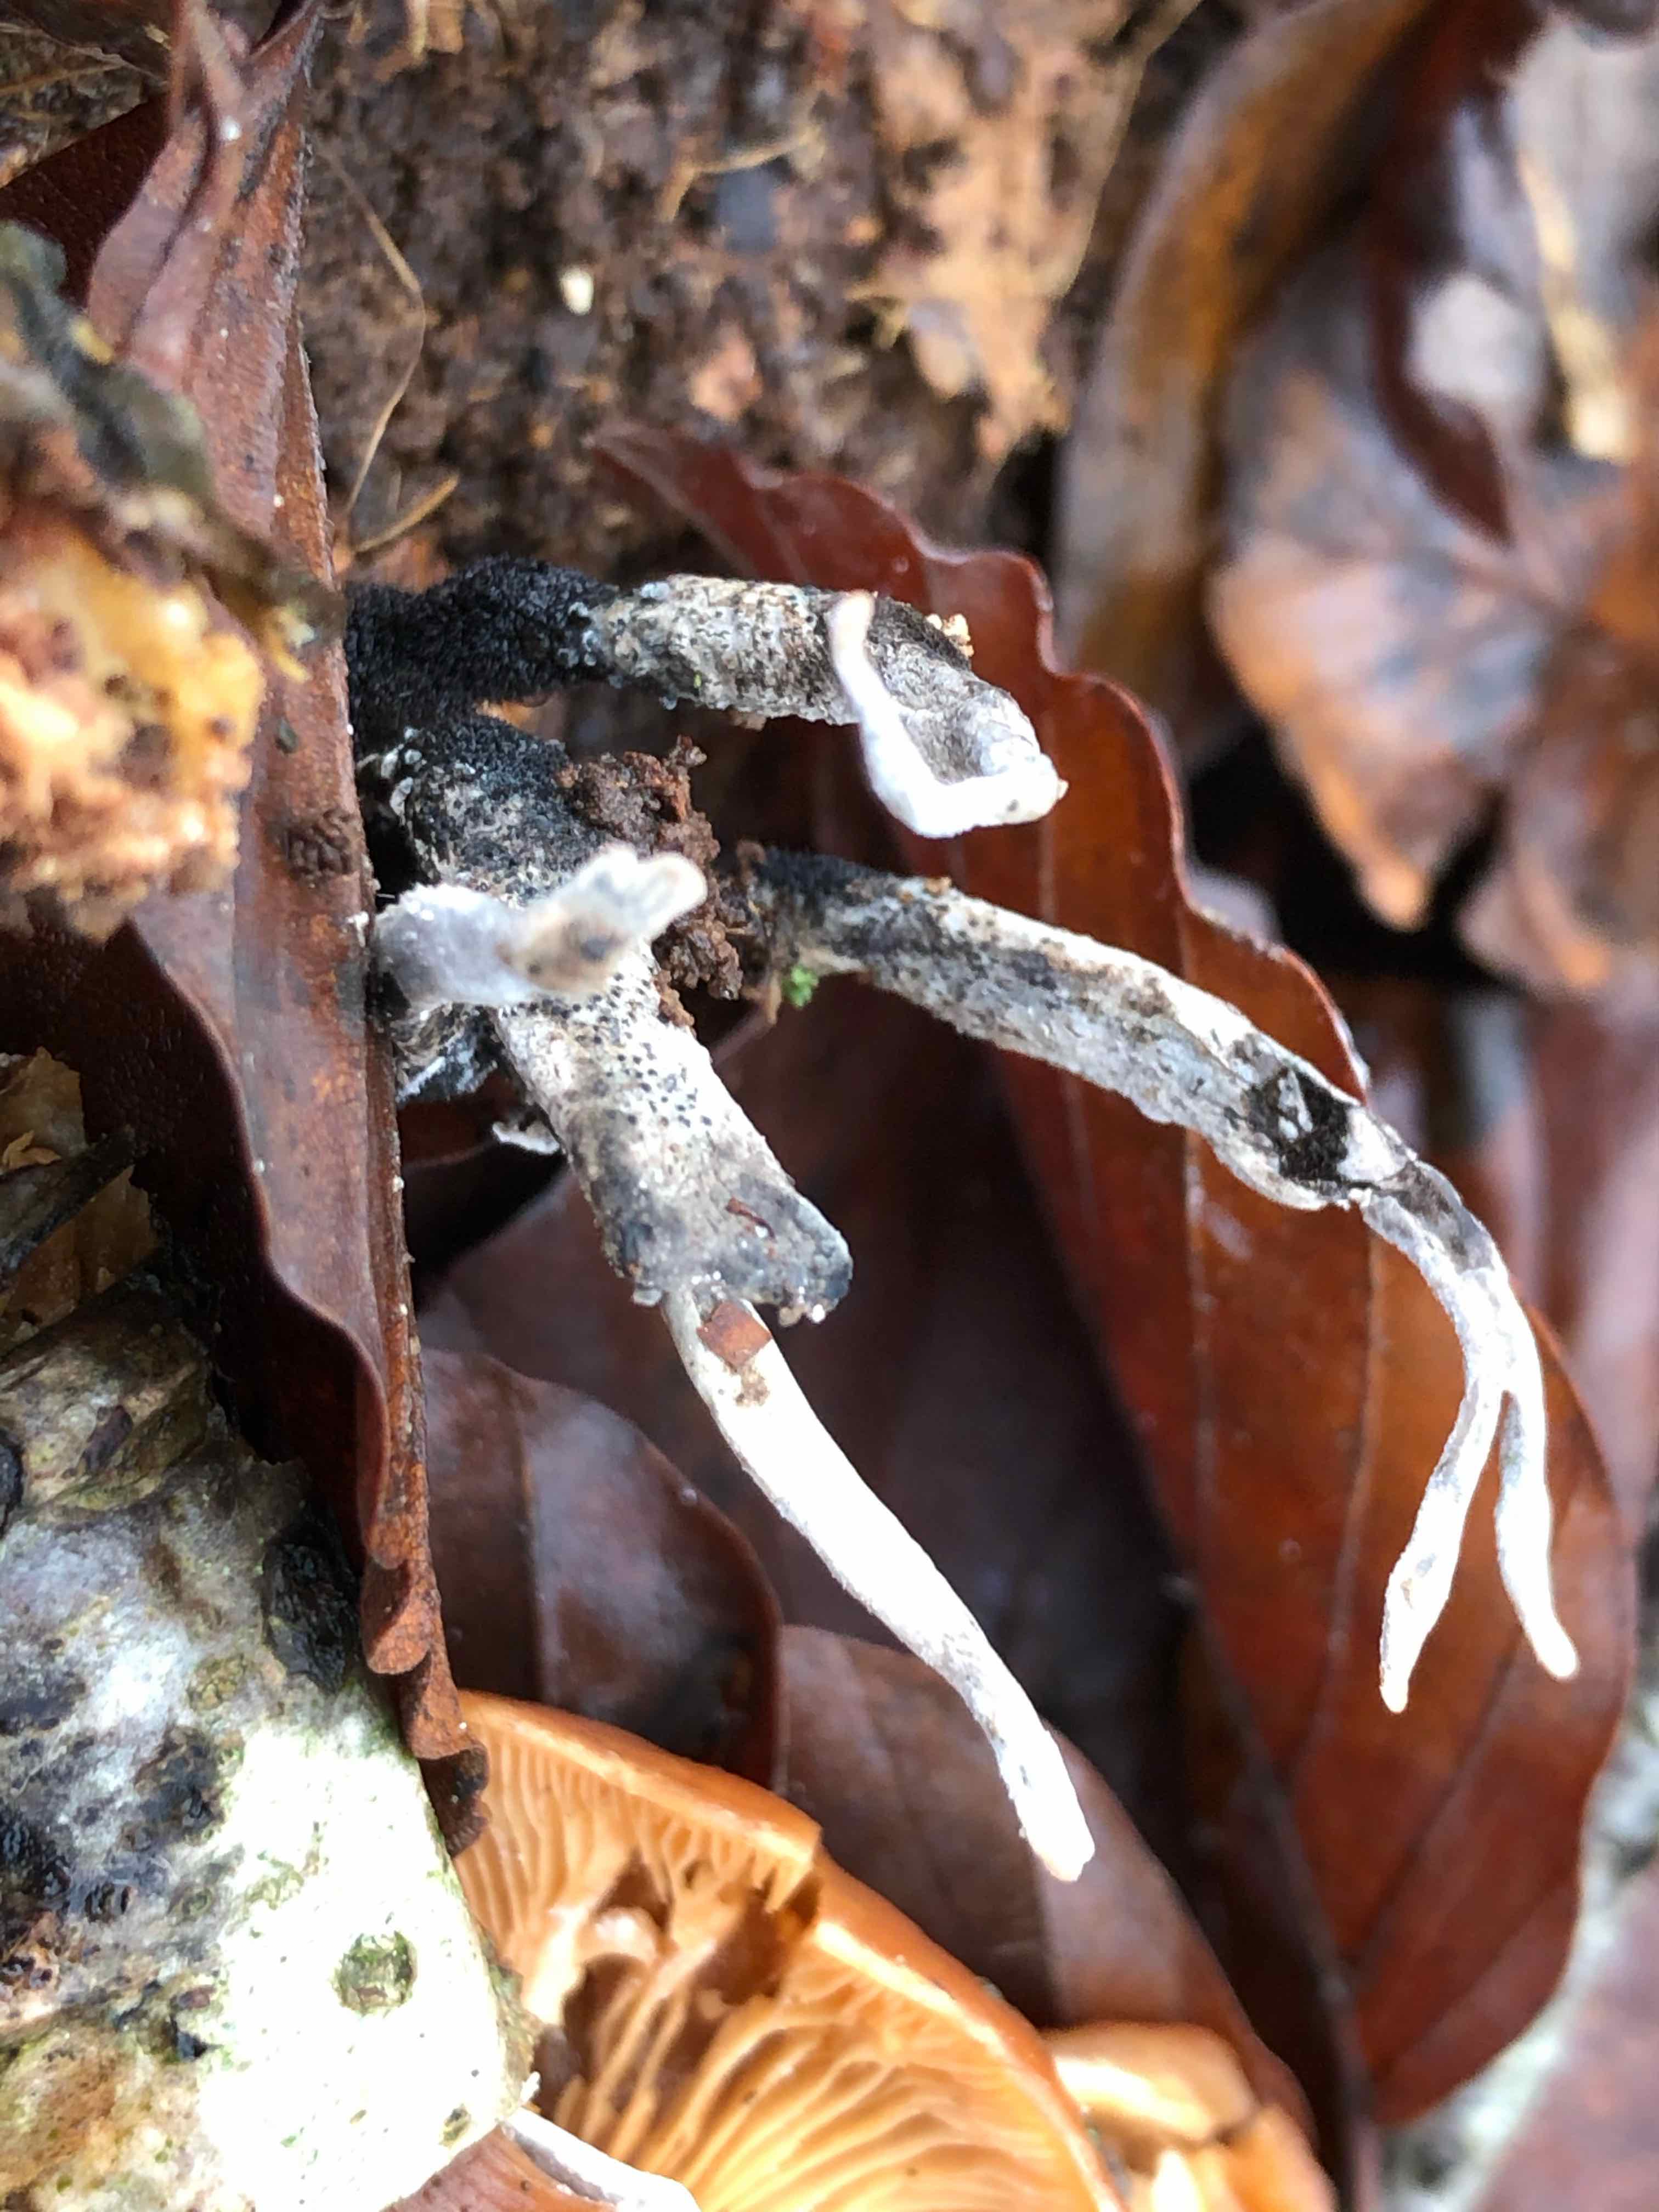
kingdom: Fungi
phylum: Ascomycota
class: Sordariomycetes
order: Xylariales
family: Xylariaceae
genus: Xylaria
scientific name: Xylaria hypoxylon
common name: grenet stødsvamp
